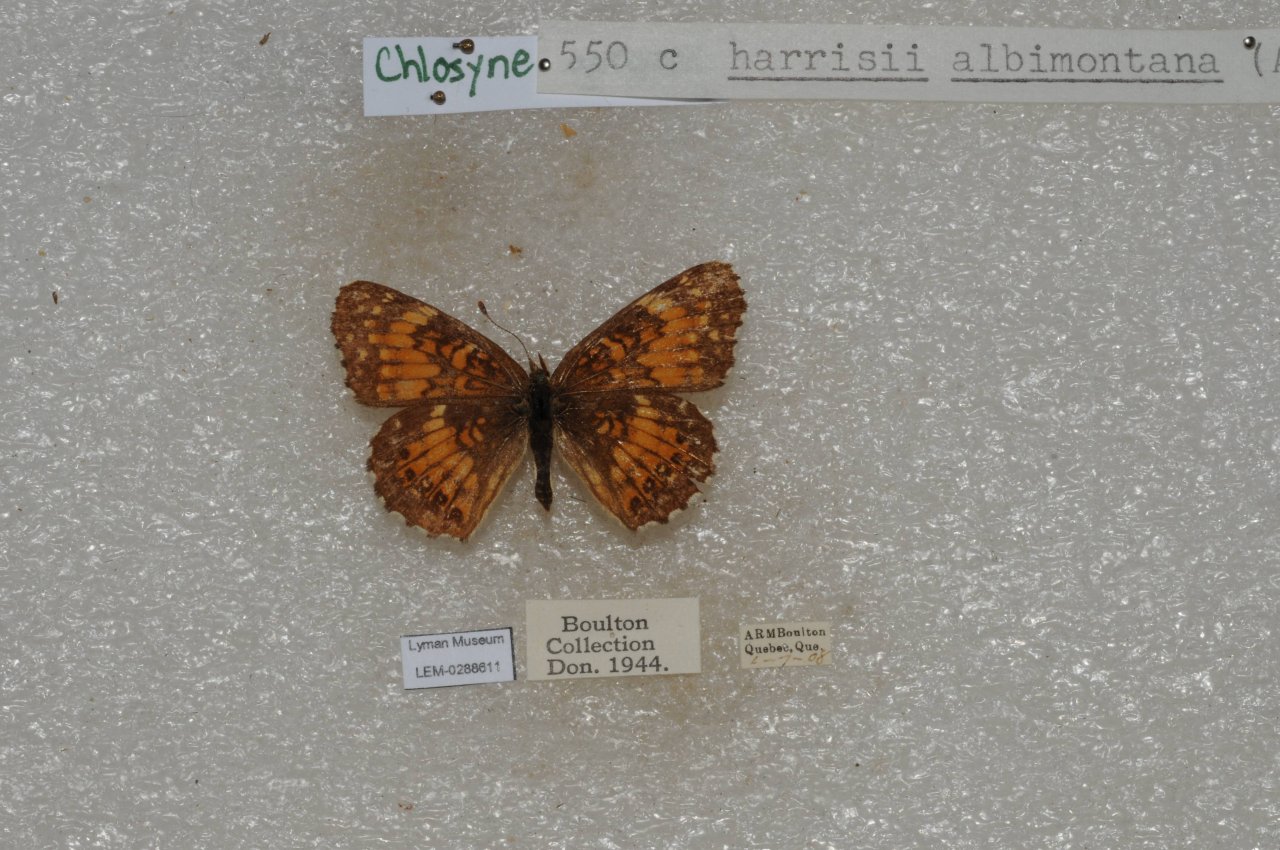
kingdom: Animalia
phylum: Arthropoda
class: Insecta
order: Lepidoptera
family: Nymphalidae
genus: Chlosyne
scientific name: Chlosyne harrisii
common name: Harris's Checkerspot
